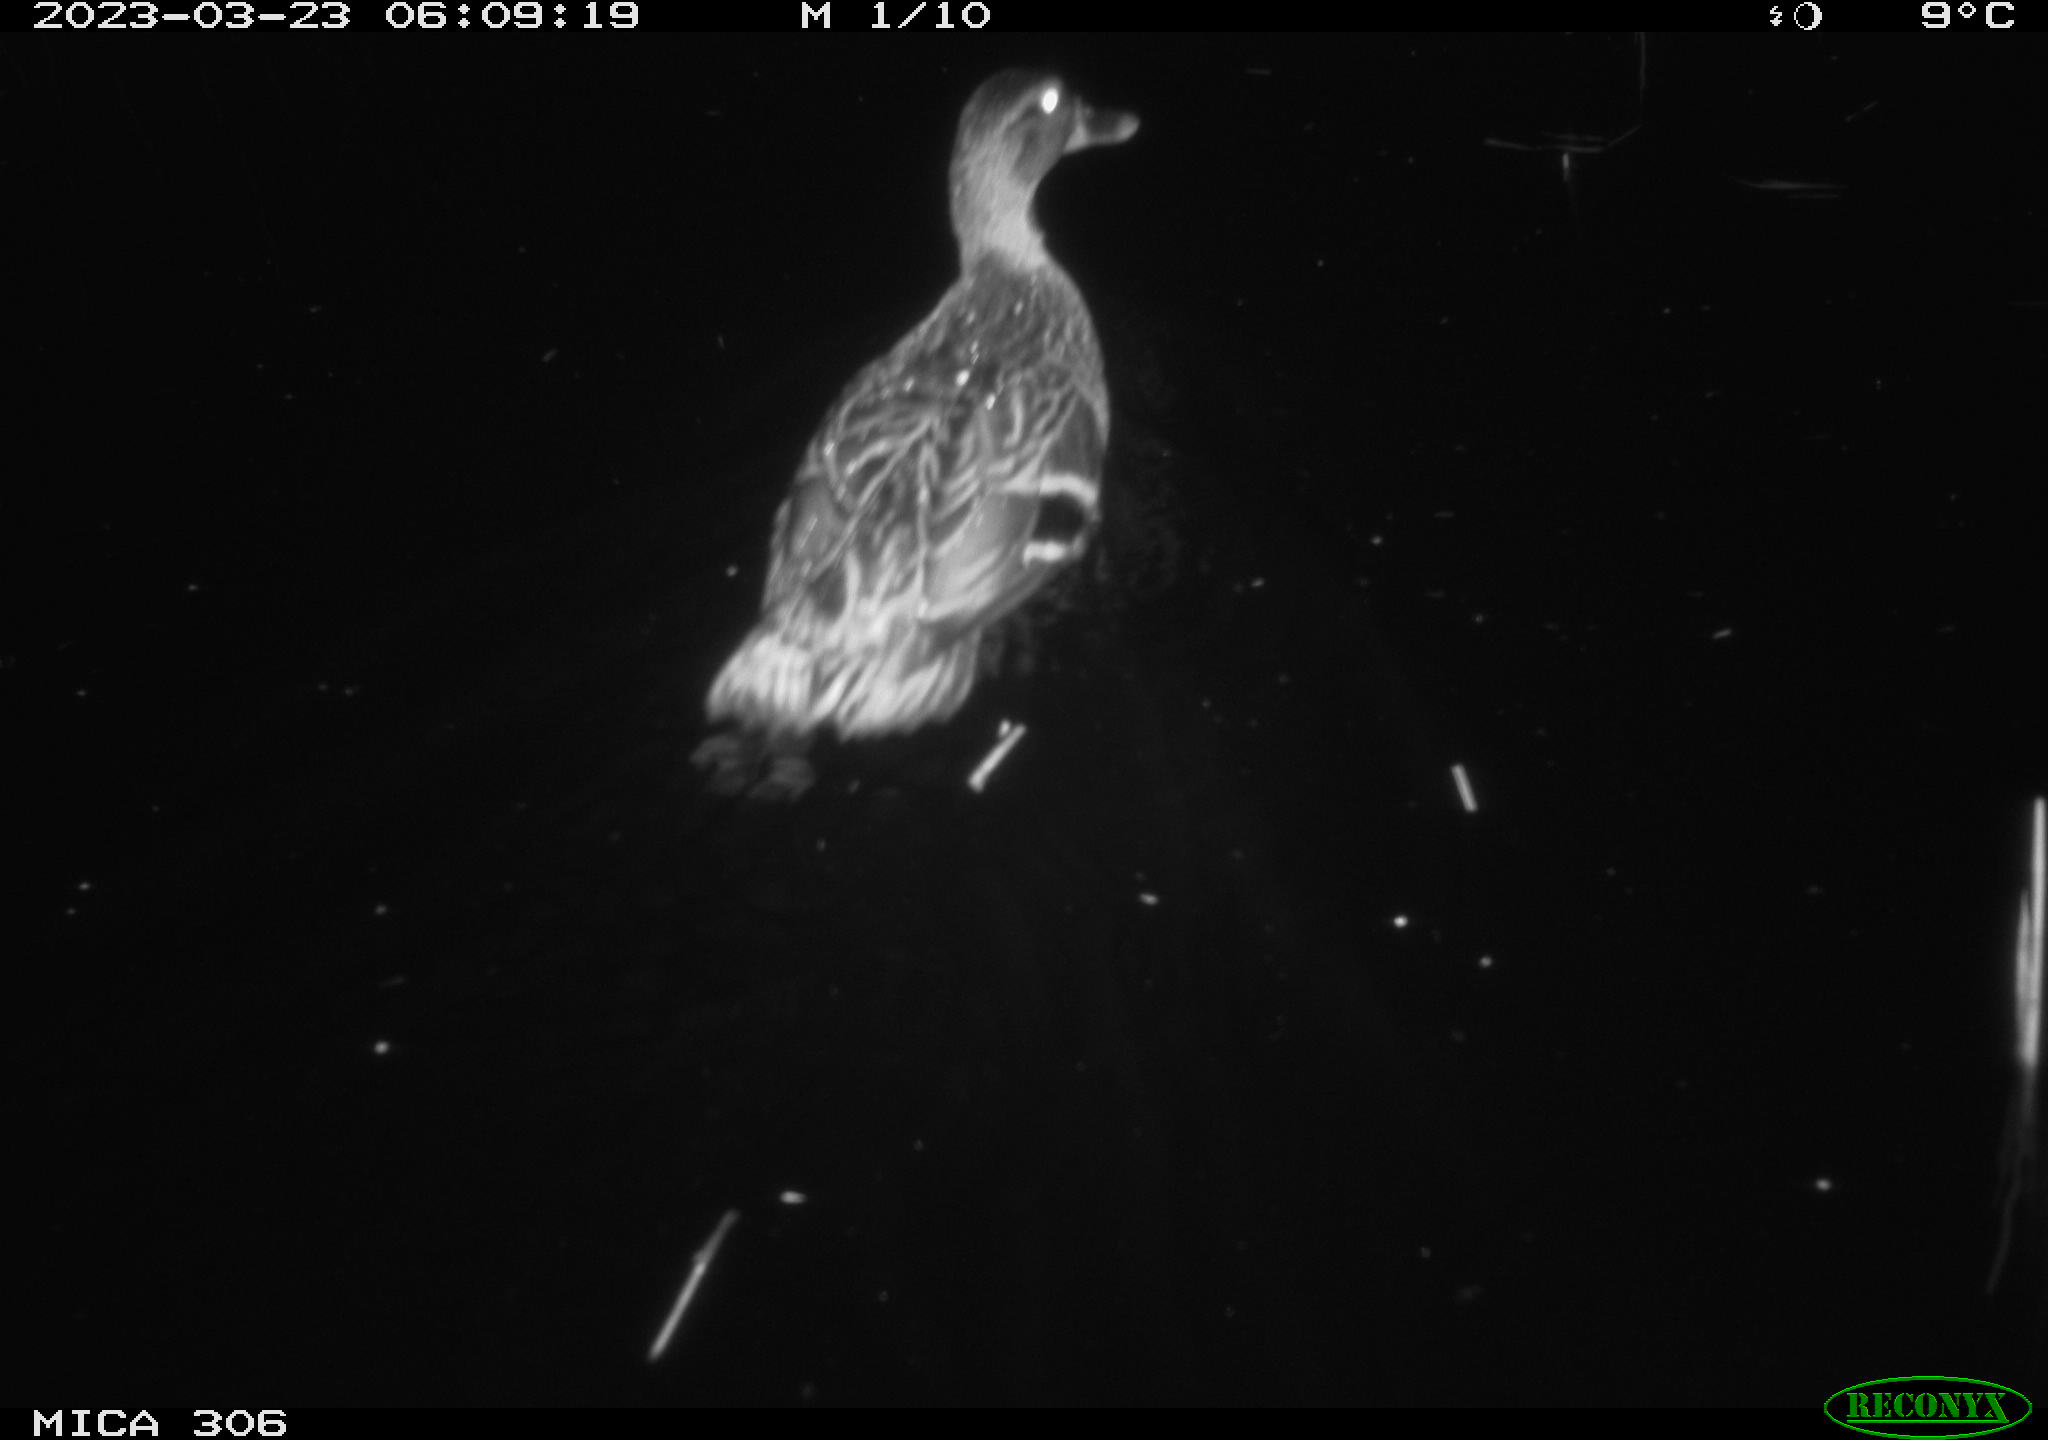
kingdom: Animalia
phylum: Chordata
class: Aves
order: Anseriformes
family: Anatidae
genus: Anas
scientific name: Anas
